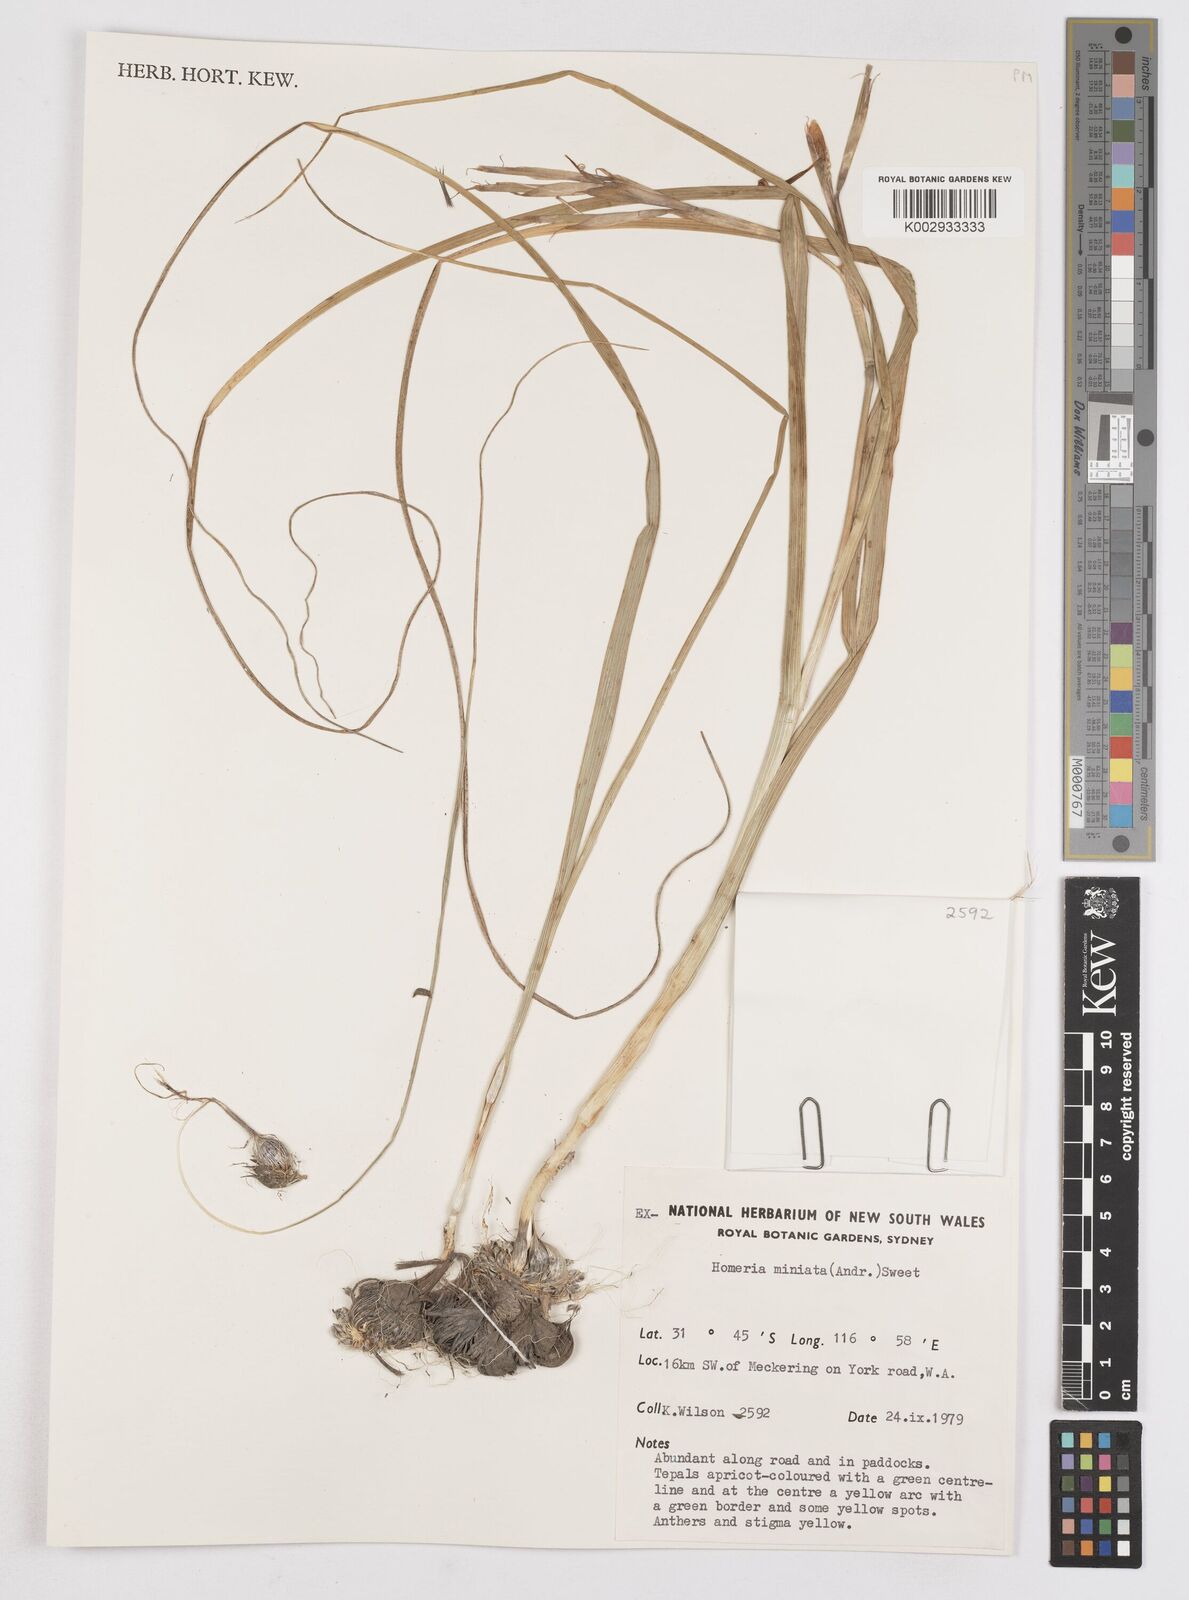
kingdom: Plantae
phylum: Tracheophyta
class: Liliopsida
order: Asparagales
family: Iridaceae
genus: Moraea
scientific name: Moraea miniata
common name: Two-leaf cape-tulip
